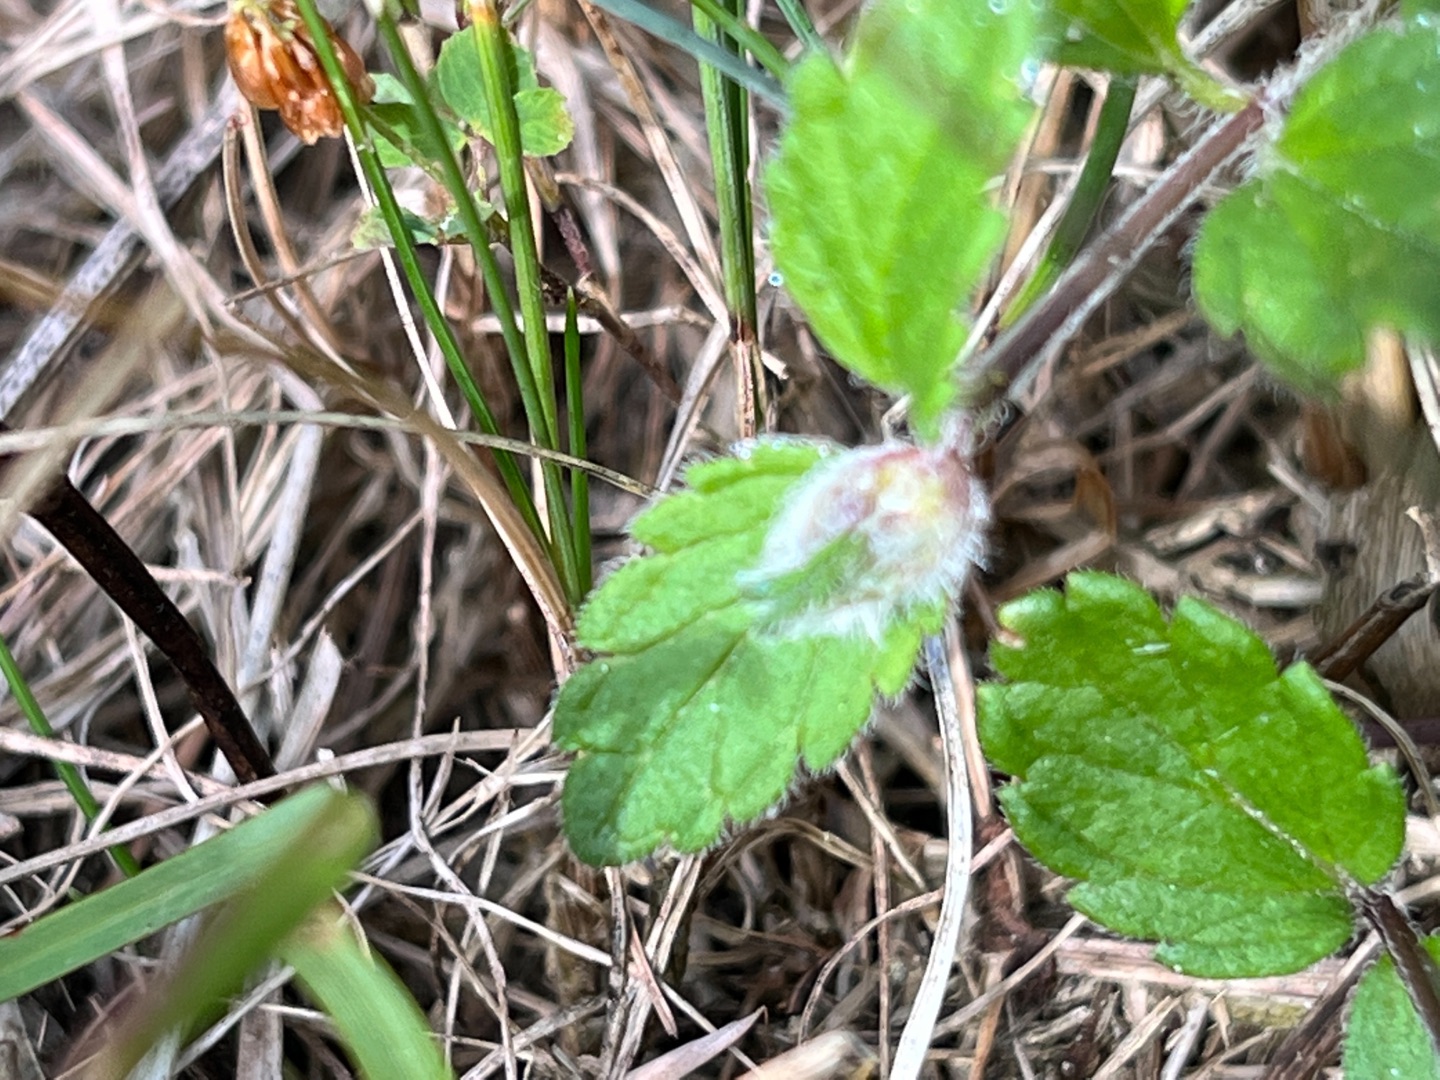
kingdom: Animalia
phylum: Arthropoda
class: Insecta
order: Diptera
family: Cecidomyiidae
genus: Jaapiella
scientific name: Jaapiella veronicae
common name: Ærenprisgalmyg
